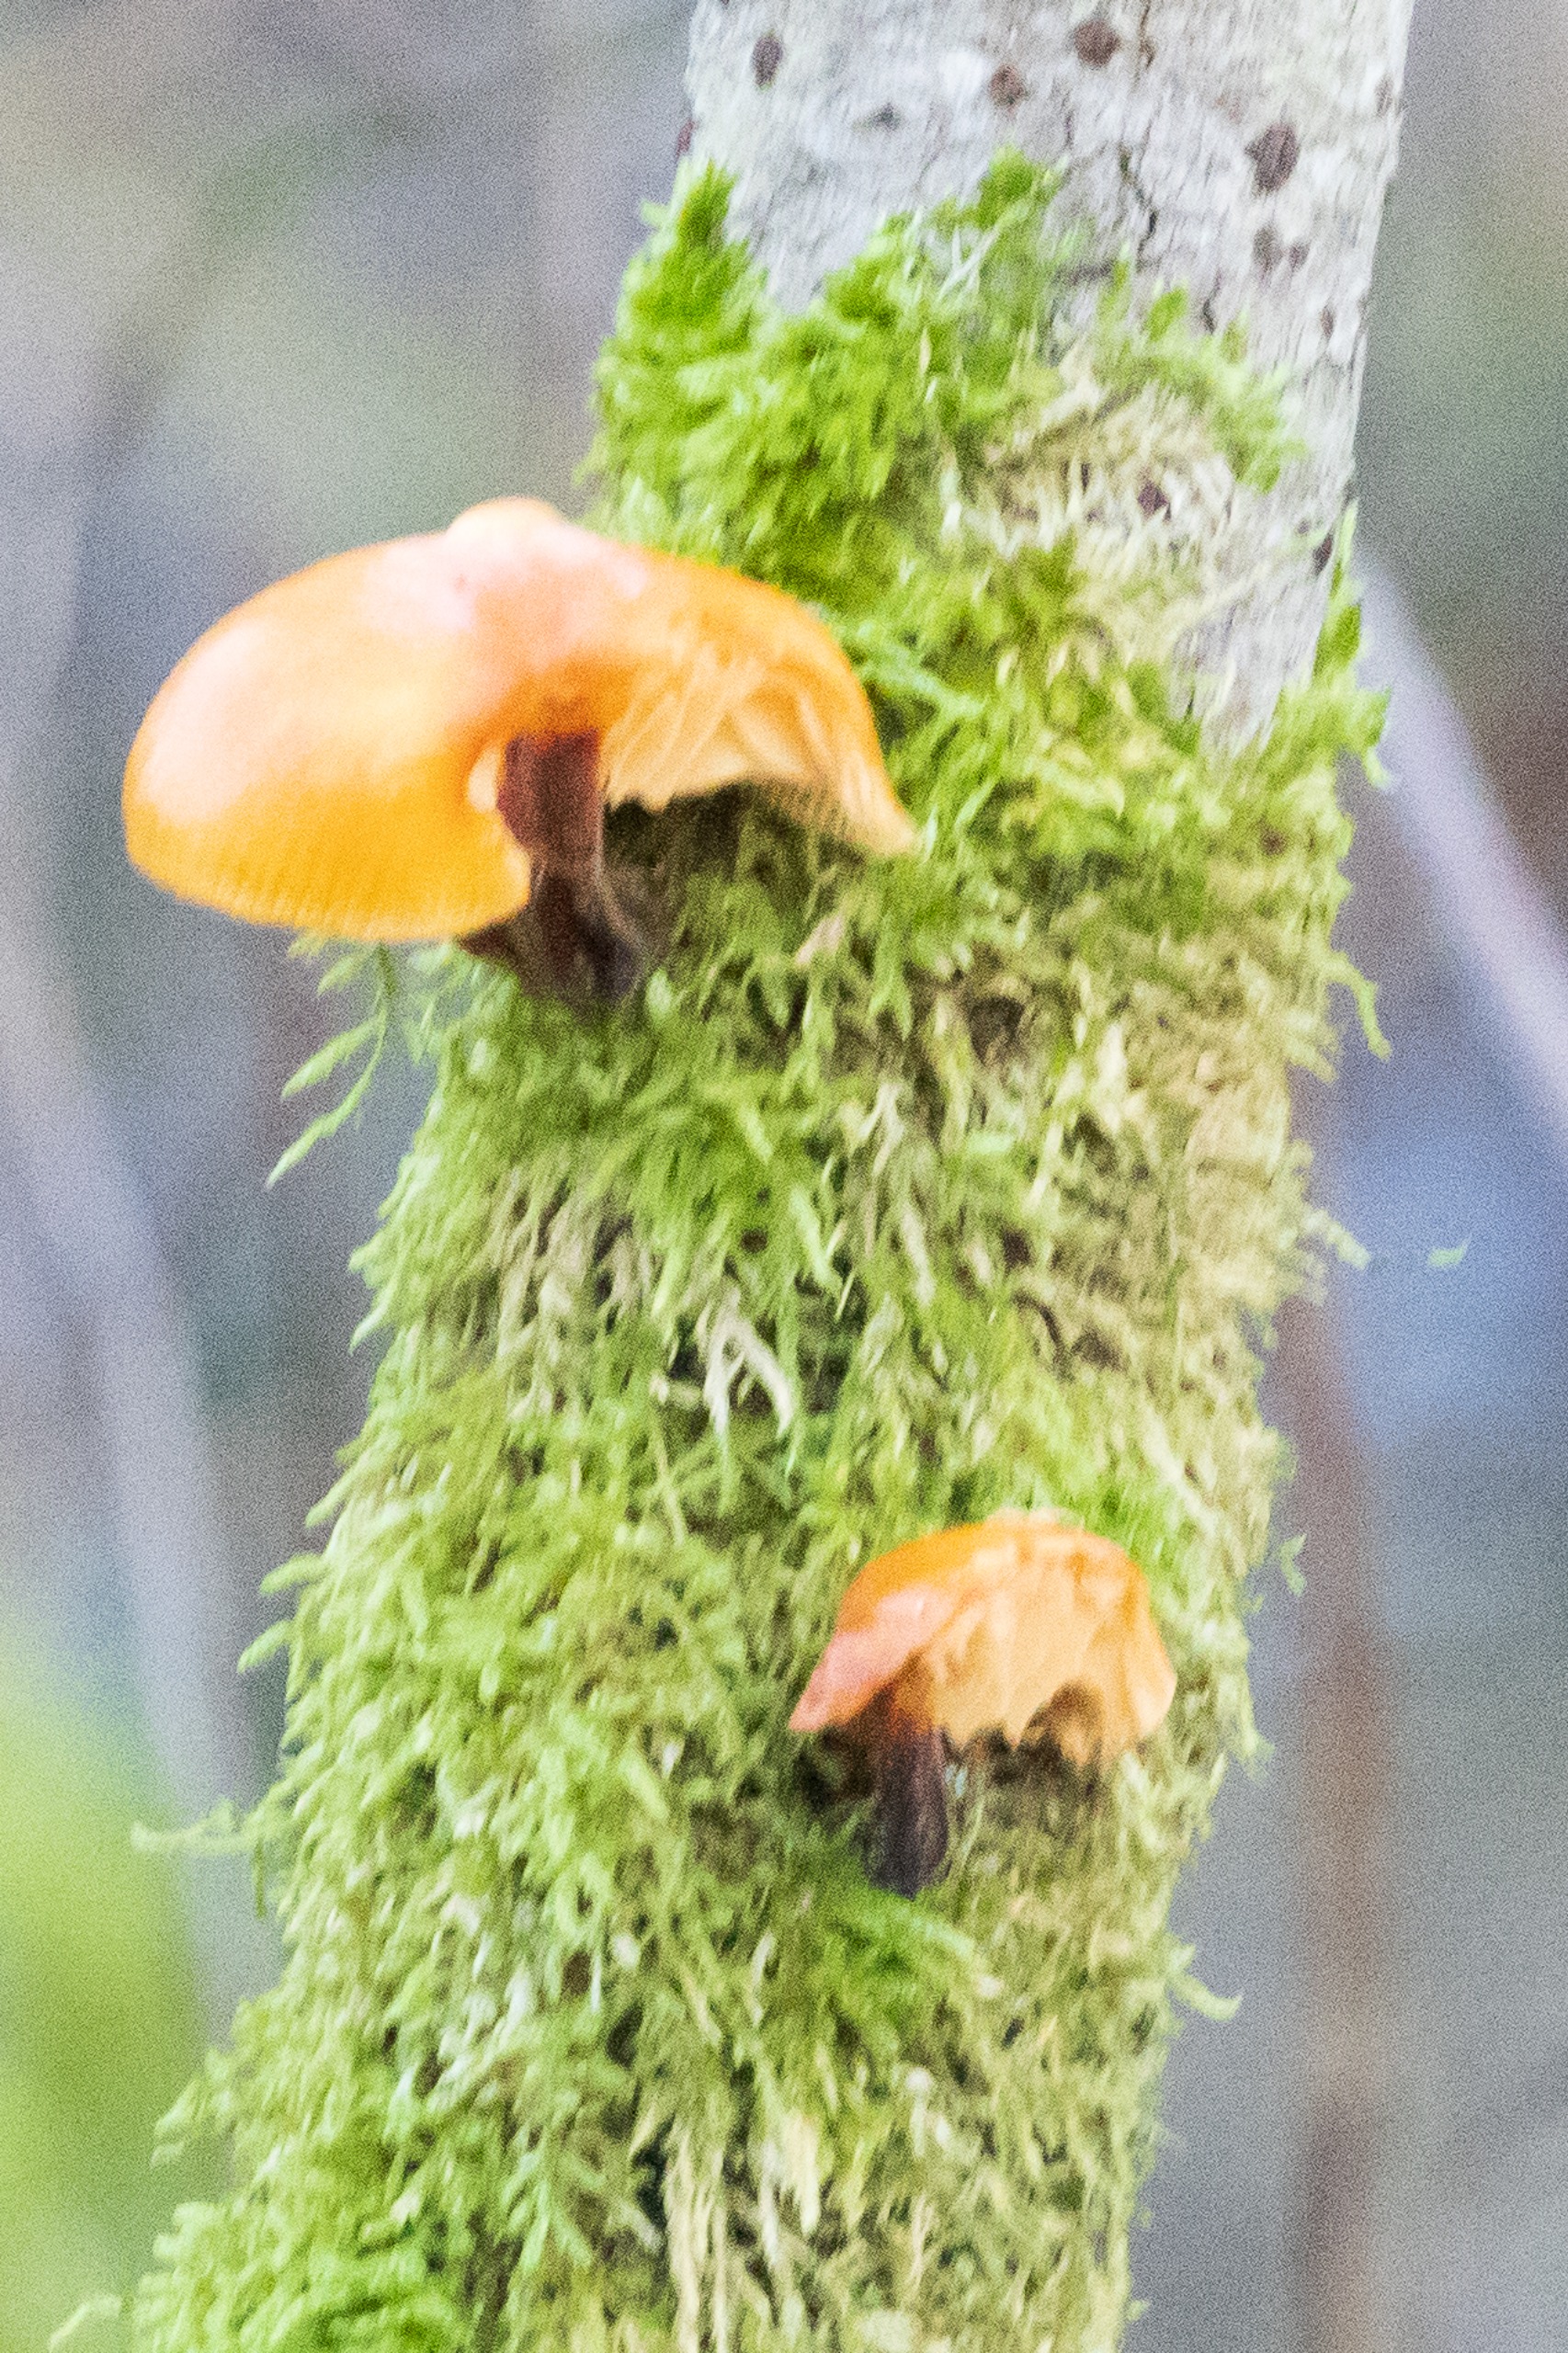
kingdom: Fungi
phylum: Basidiomycota
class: Agaricomycetes
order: Agaricales
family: Physalacriaceae
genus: Flammulina
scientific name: Flammulina velutipes
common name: Gul fløjlsfod
